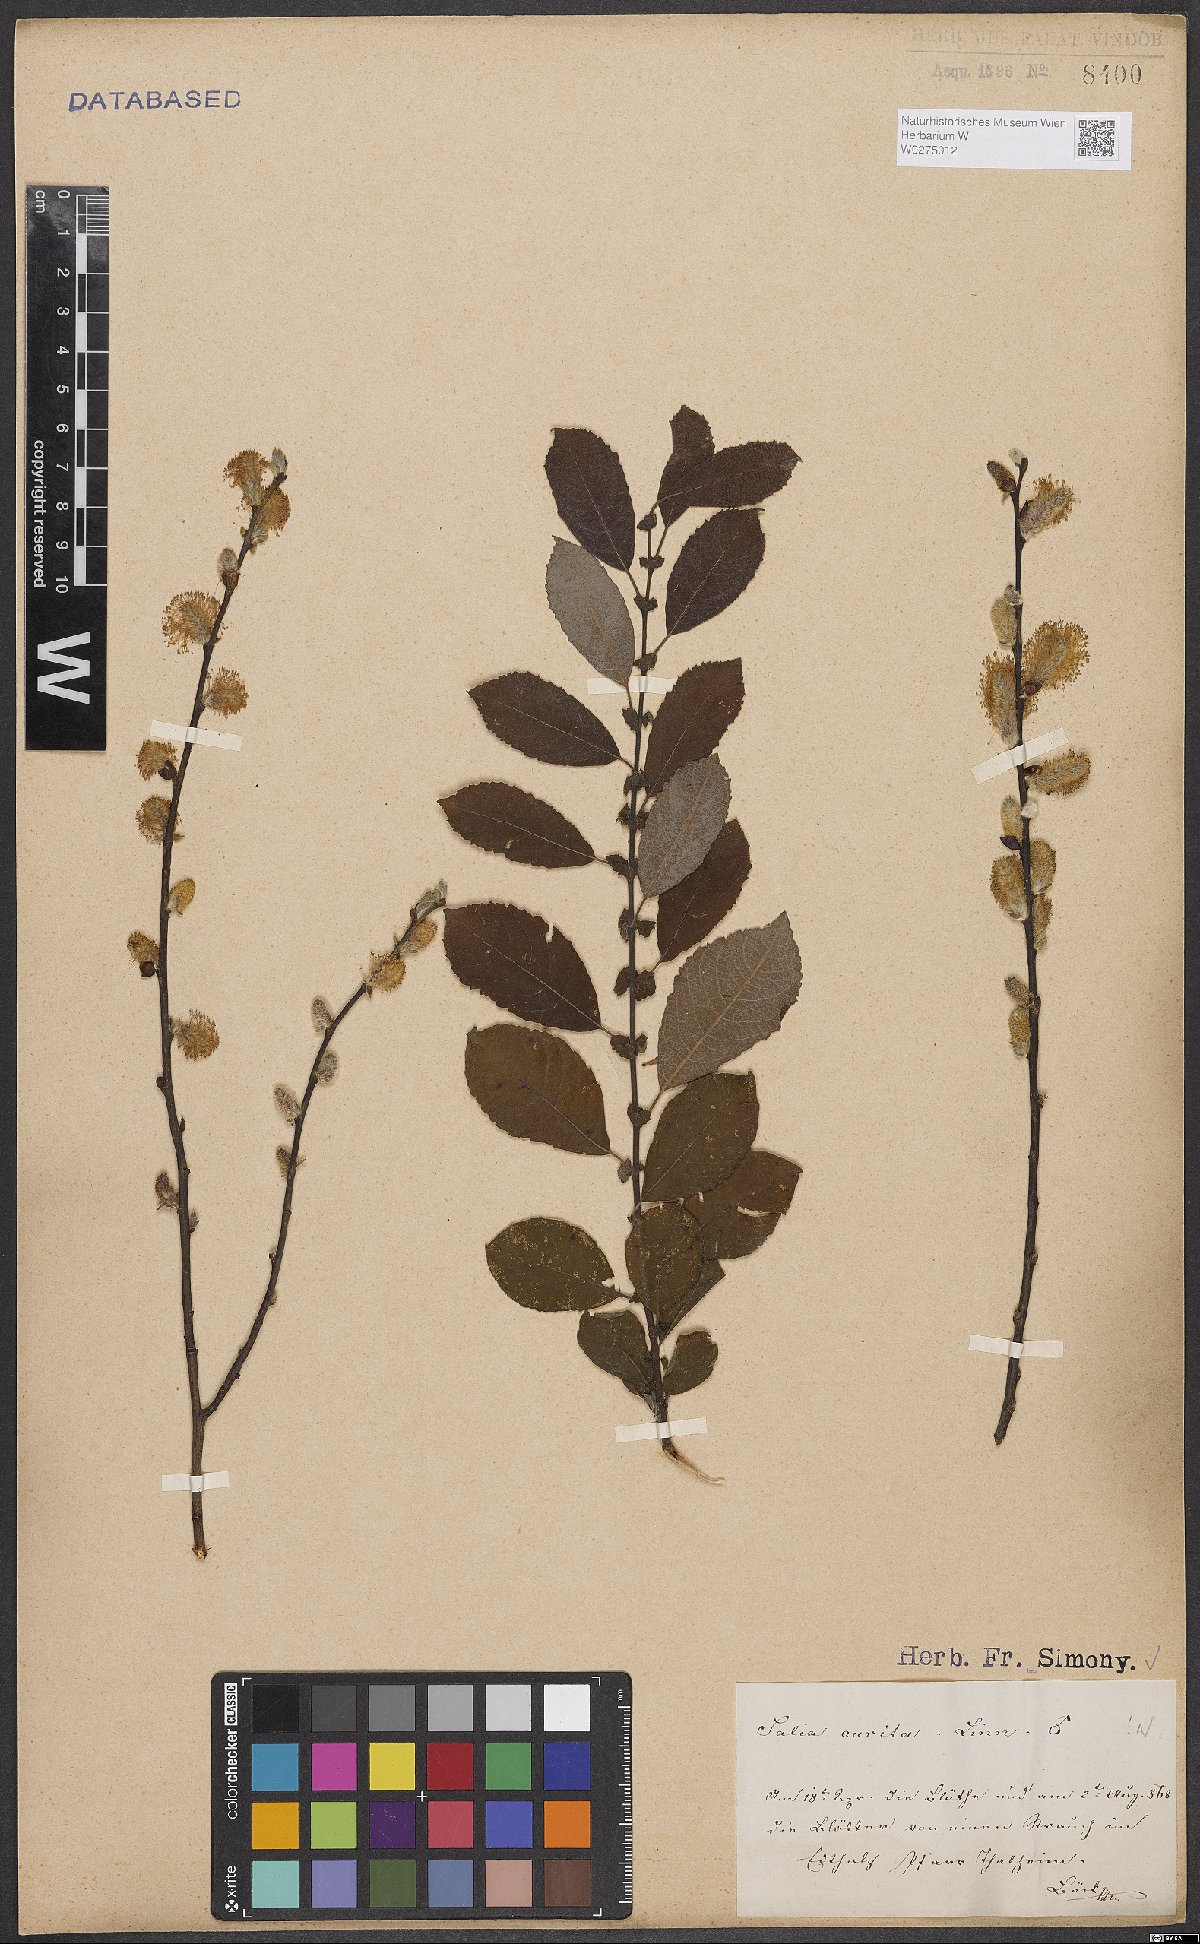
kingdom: Plantae
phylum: Tracheophyta
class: Magnoliopsida
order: Malpighiales
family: Salicaceae
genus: Salix
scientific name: Salix aurita
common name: Eared willow
